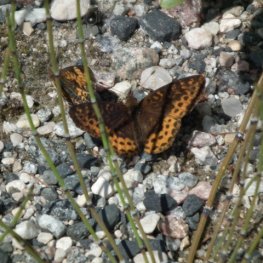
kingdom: Animalia
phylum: Arthropoda
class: Insecta
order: Lepidoptera
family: Nymphalidae
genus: Clossiana
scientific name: Clossiana toddi
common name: Meadow Fritillary
